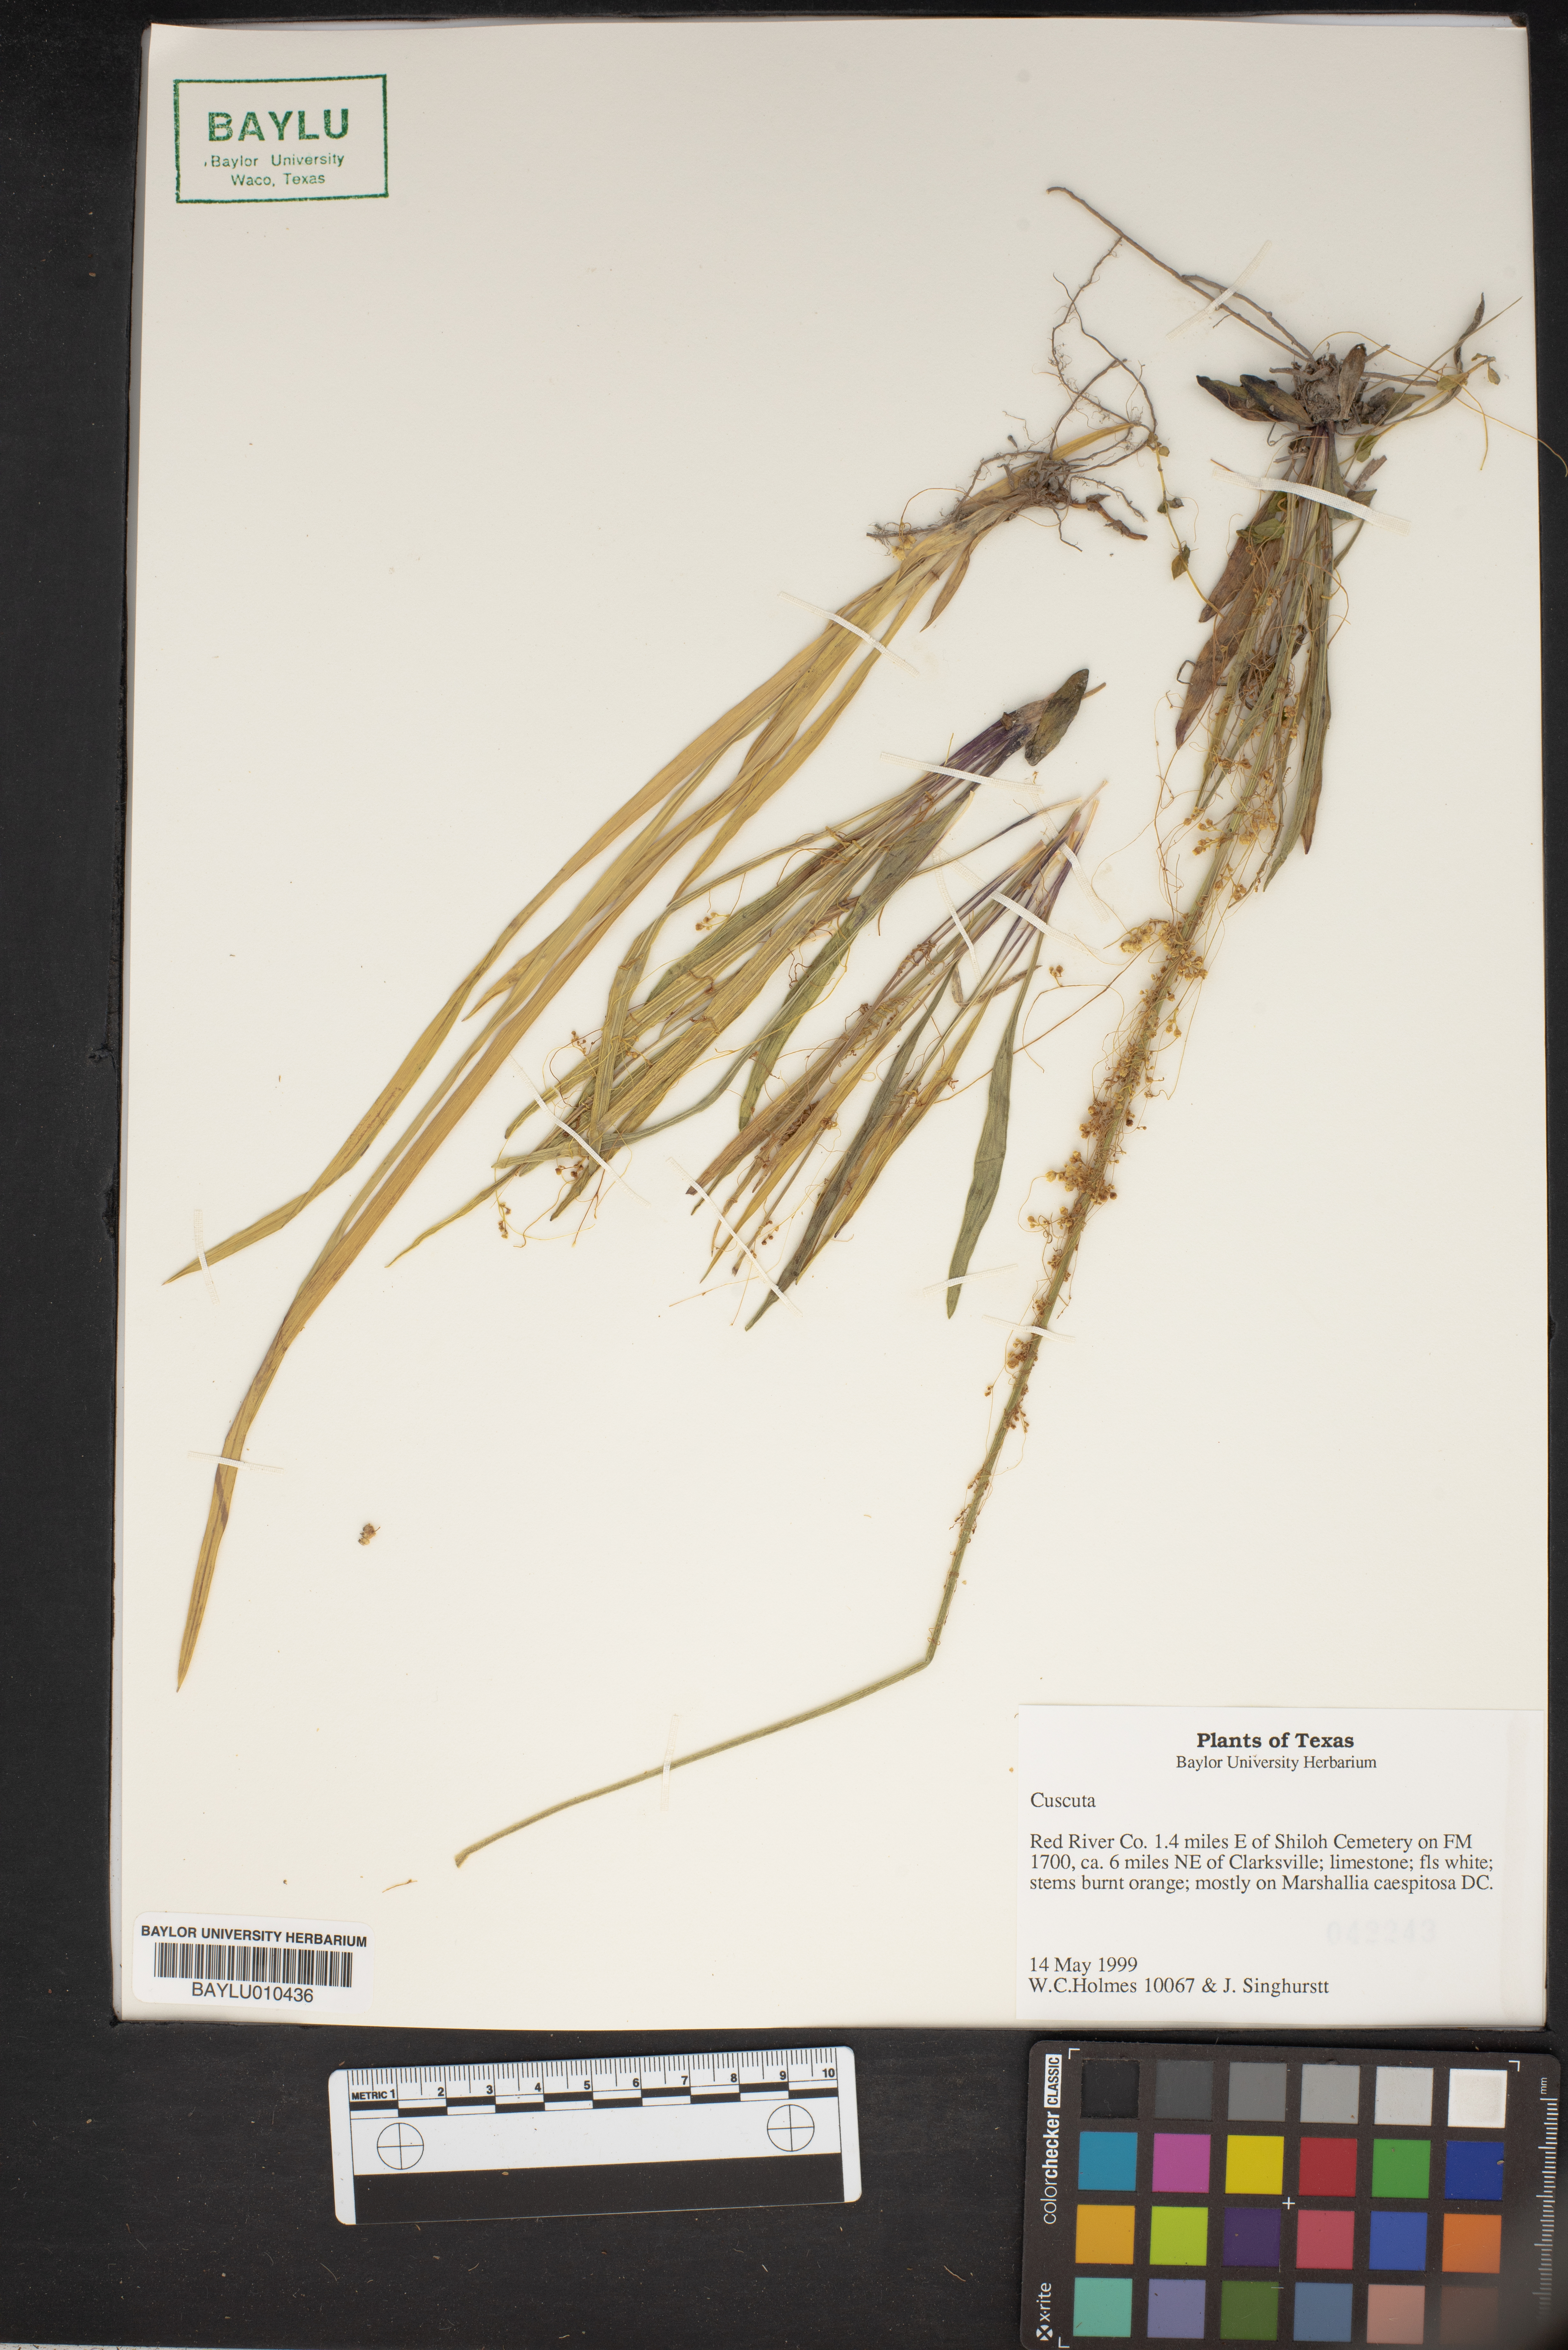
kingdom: Plantae
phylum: Tracheophyta
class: Magnoliopsida
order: Solanales
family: Convolvulaceae
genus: Cuscuta
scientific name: Cuscuta
